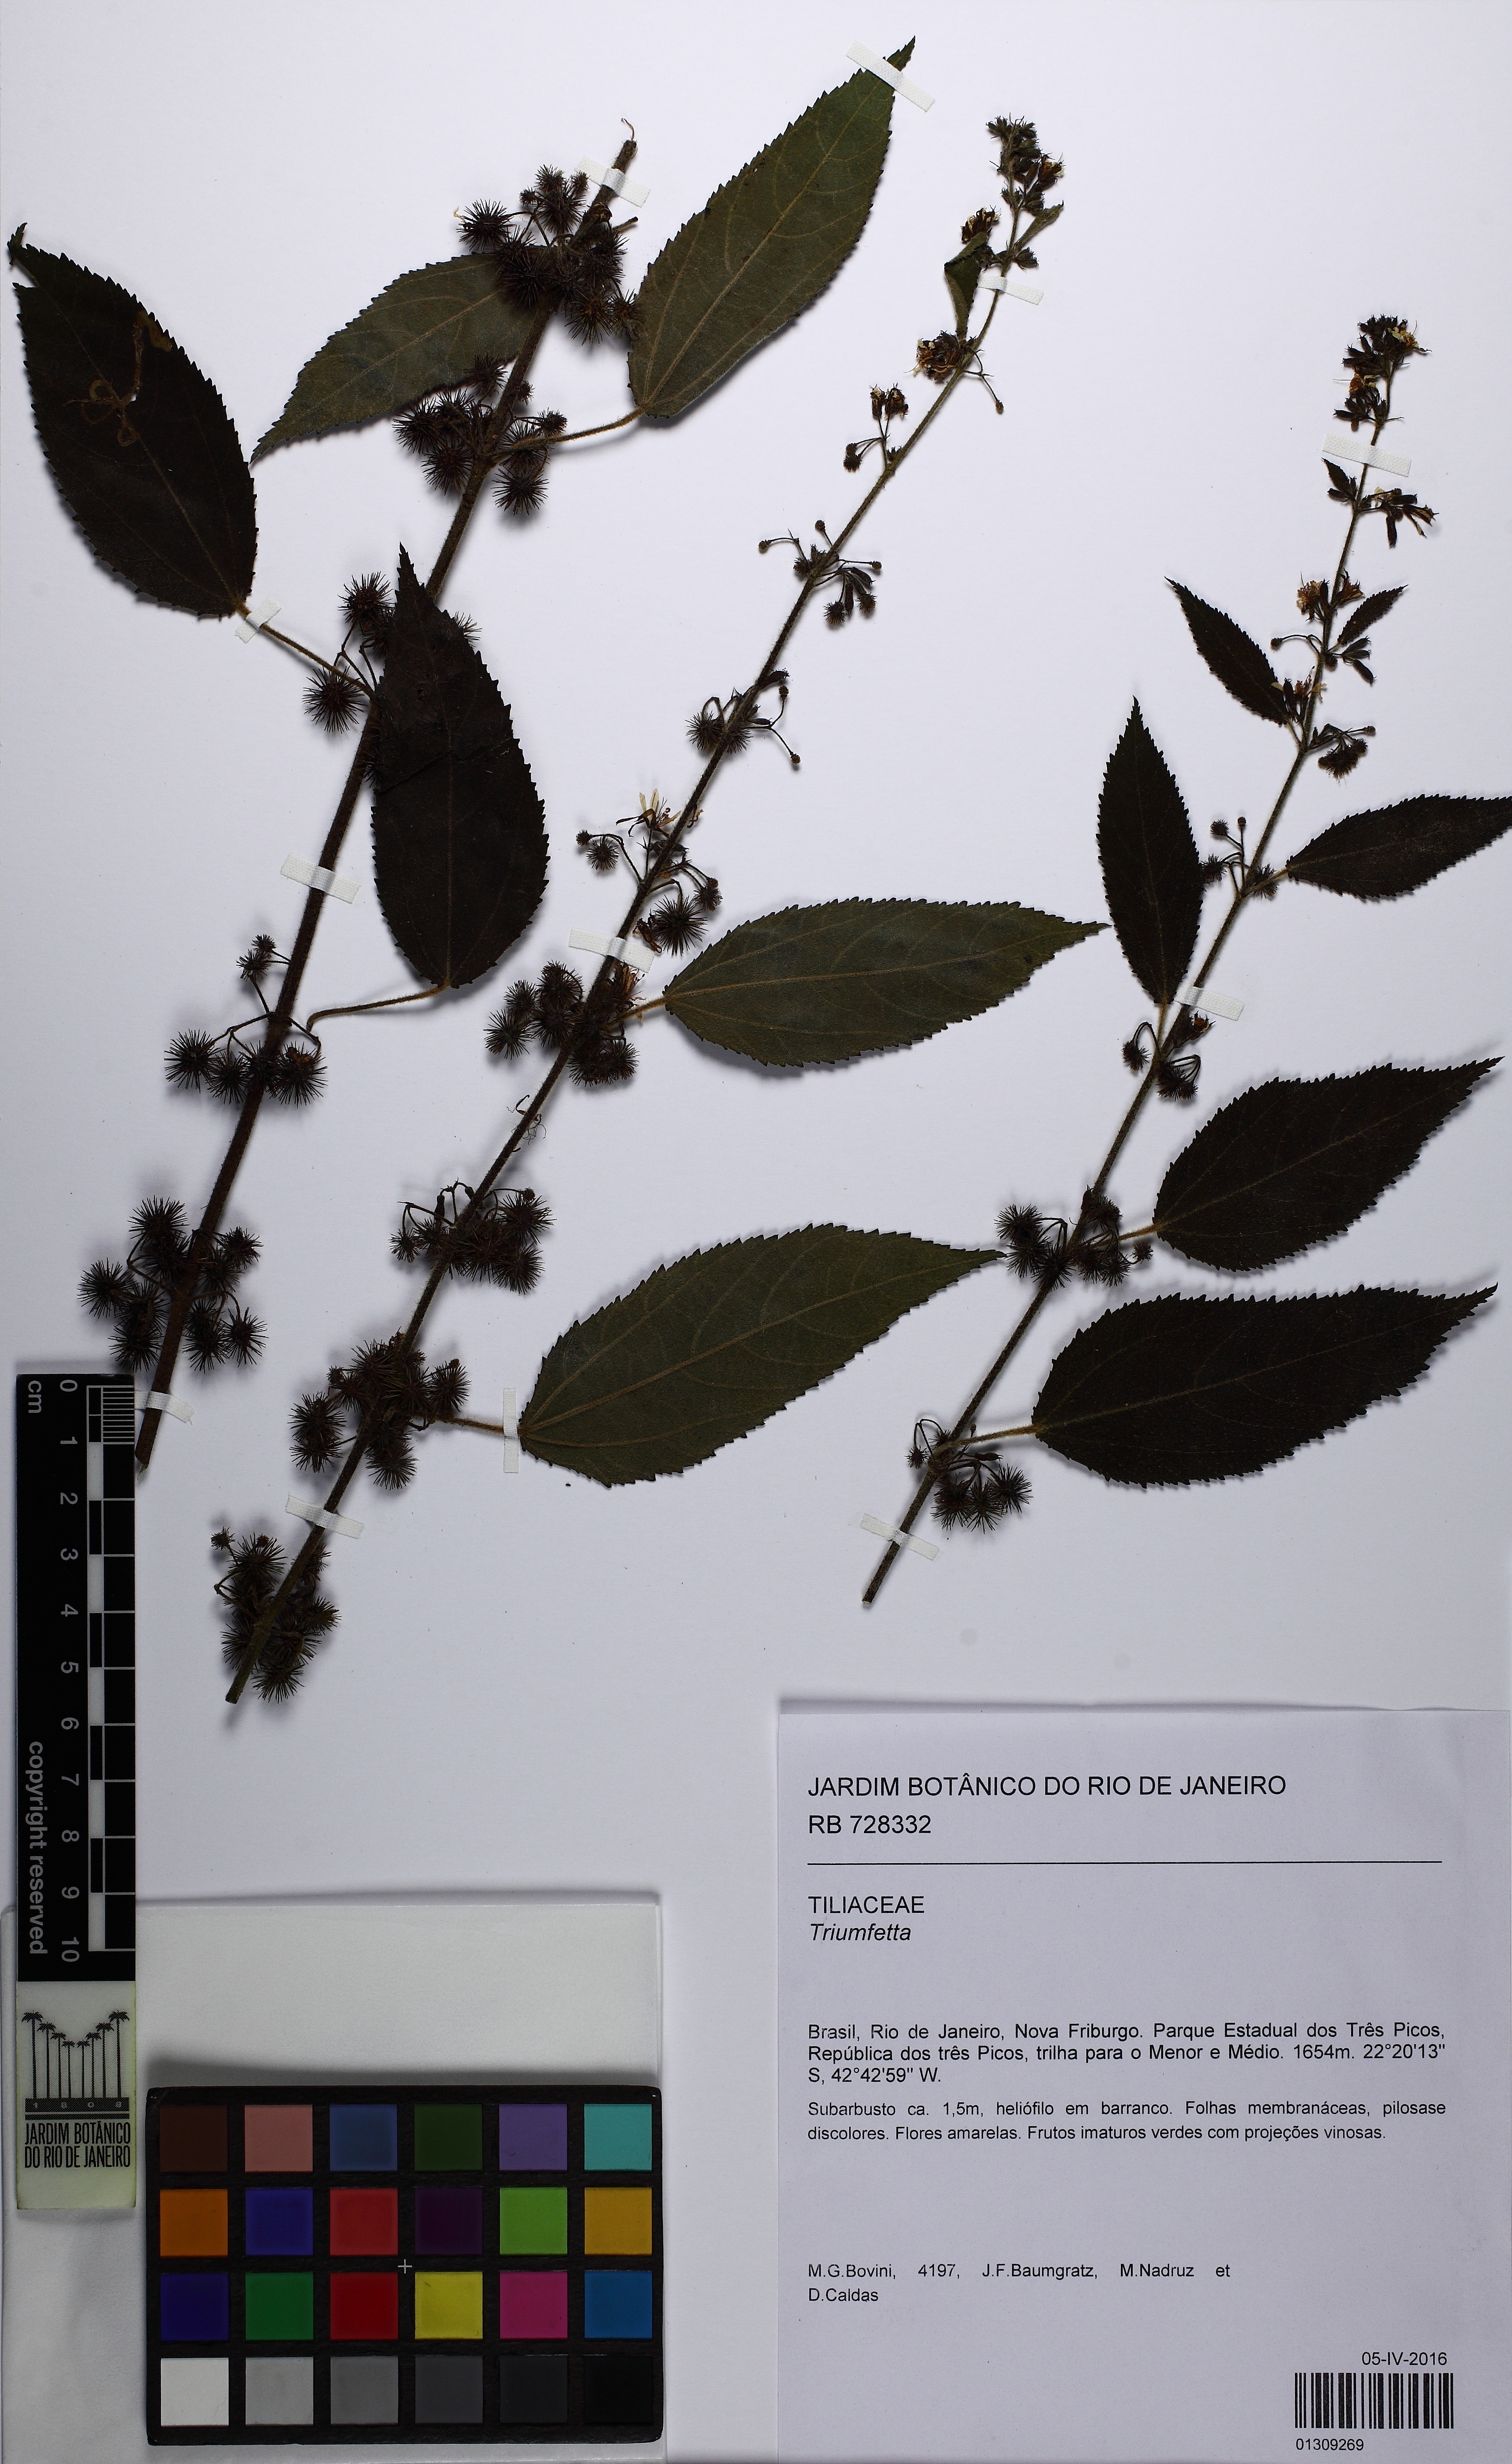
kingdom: Plantae
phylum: Tracheophyta
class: Magnoliopsida
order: Malvales
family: Malvaceae
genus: Triumfetta
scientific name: Triumfetta
